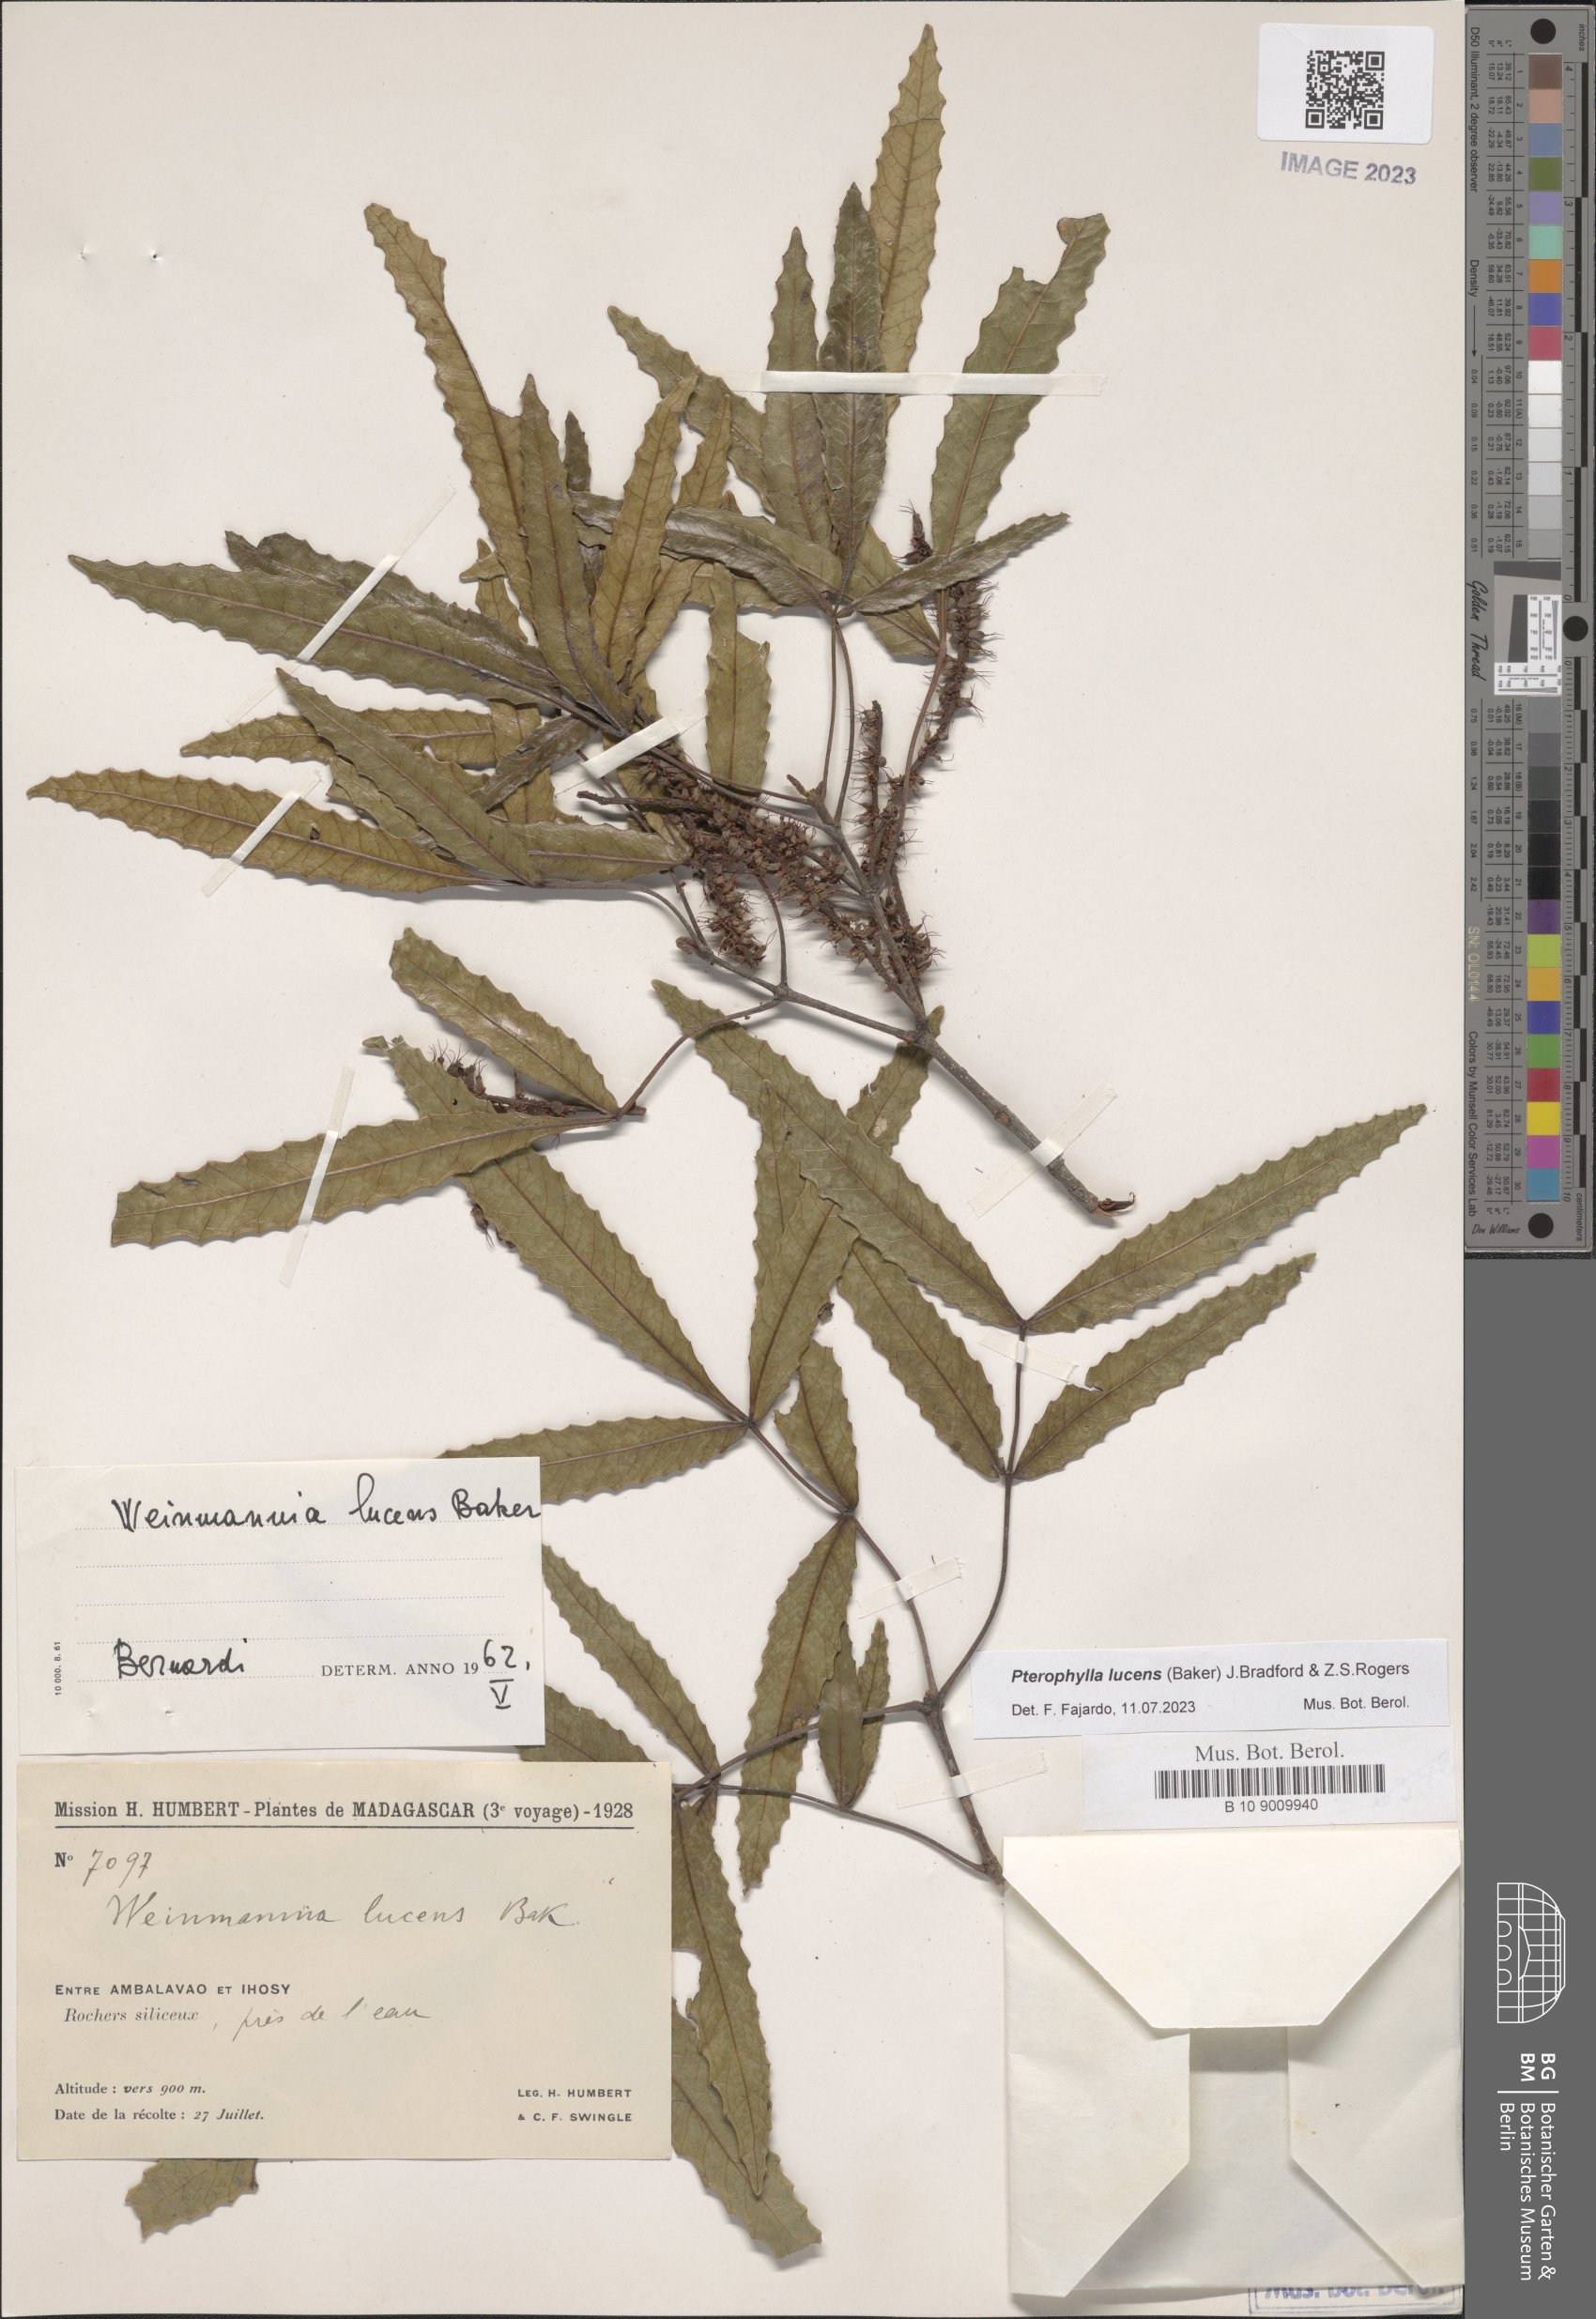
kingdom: Plantae
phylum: Tracheophyta
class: Magnoliopsida
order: Oxalidales
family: Cunoniaceae
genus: Pterophylla
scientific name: Pterophylla lucens
